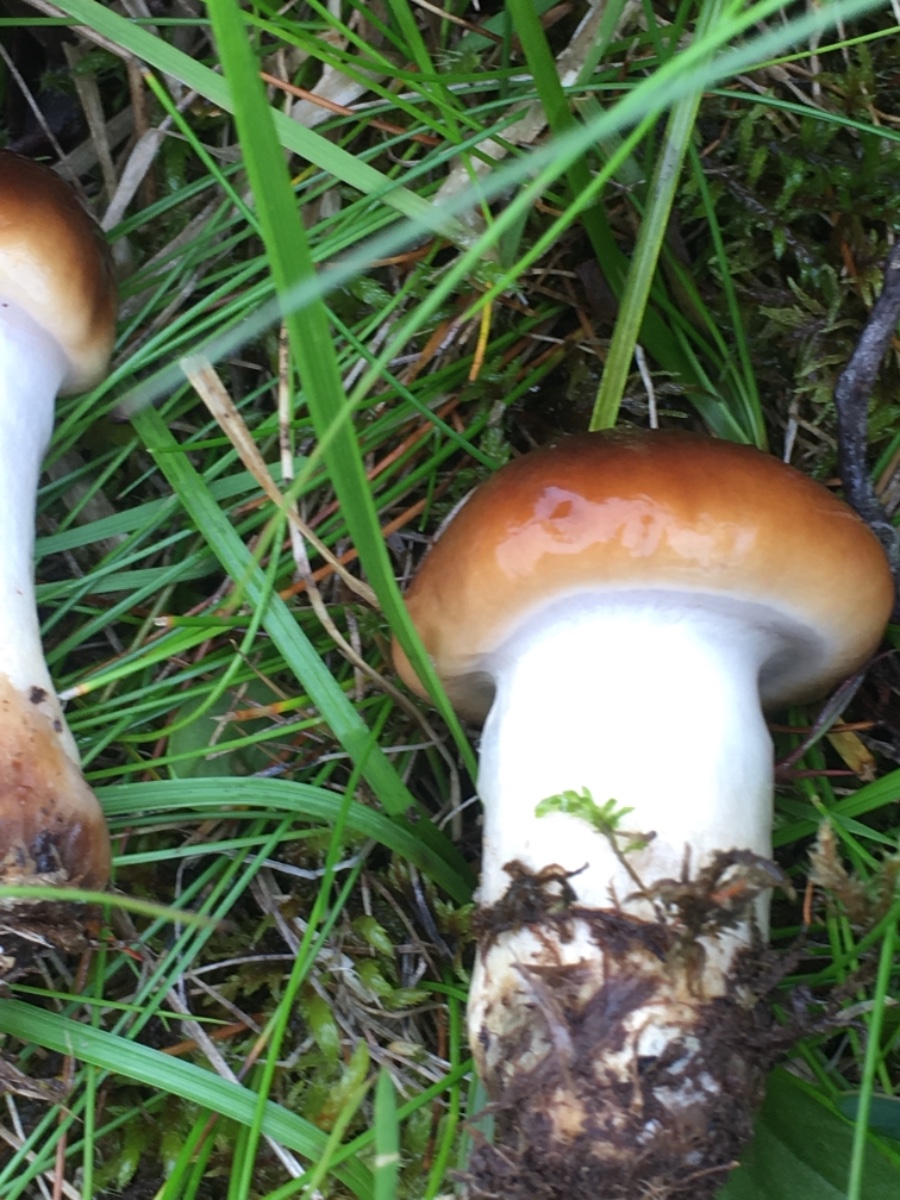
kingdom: Fungi
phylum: Basidiomycota
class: Agaricomycetes
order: Agaricales
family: Cortinariaceae
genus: Cortinarius
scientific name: Cortinarius
